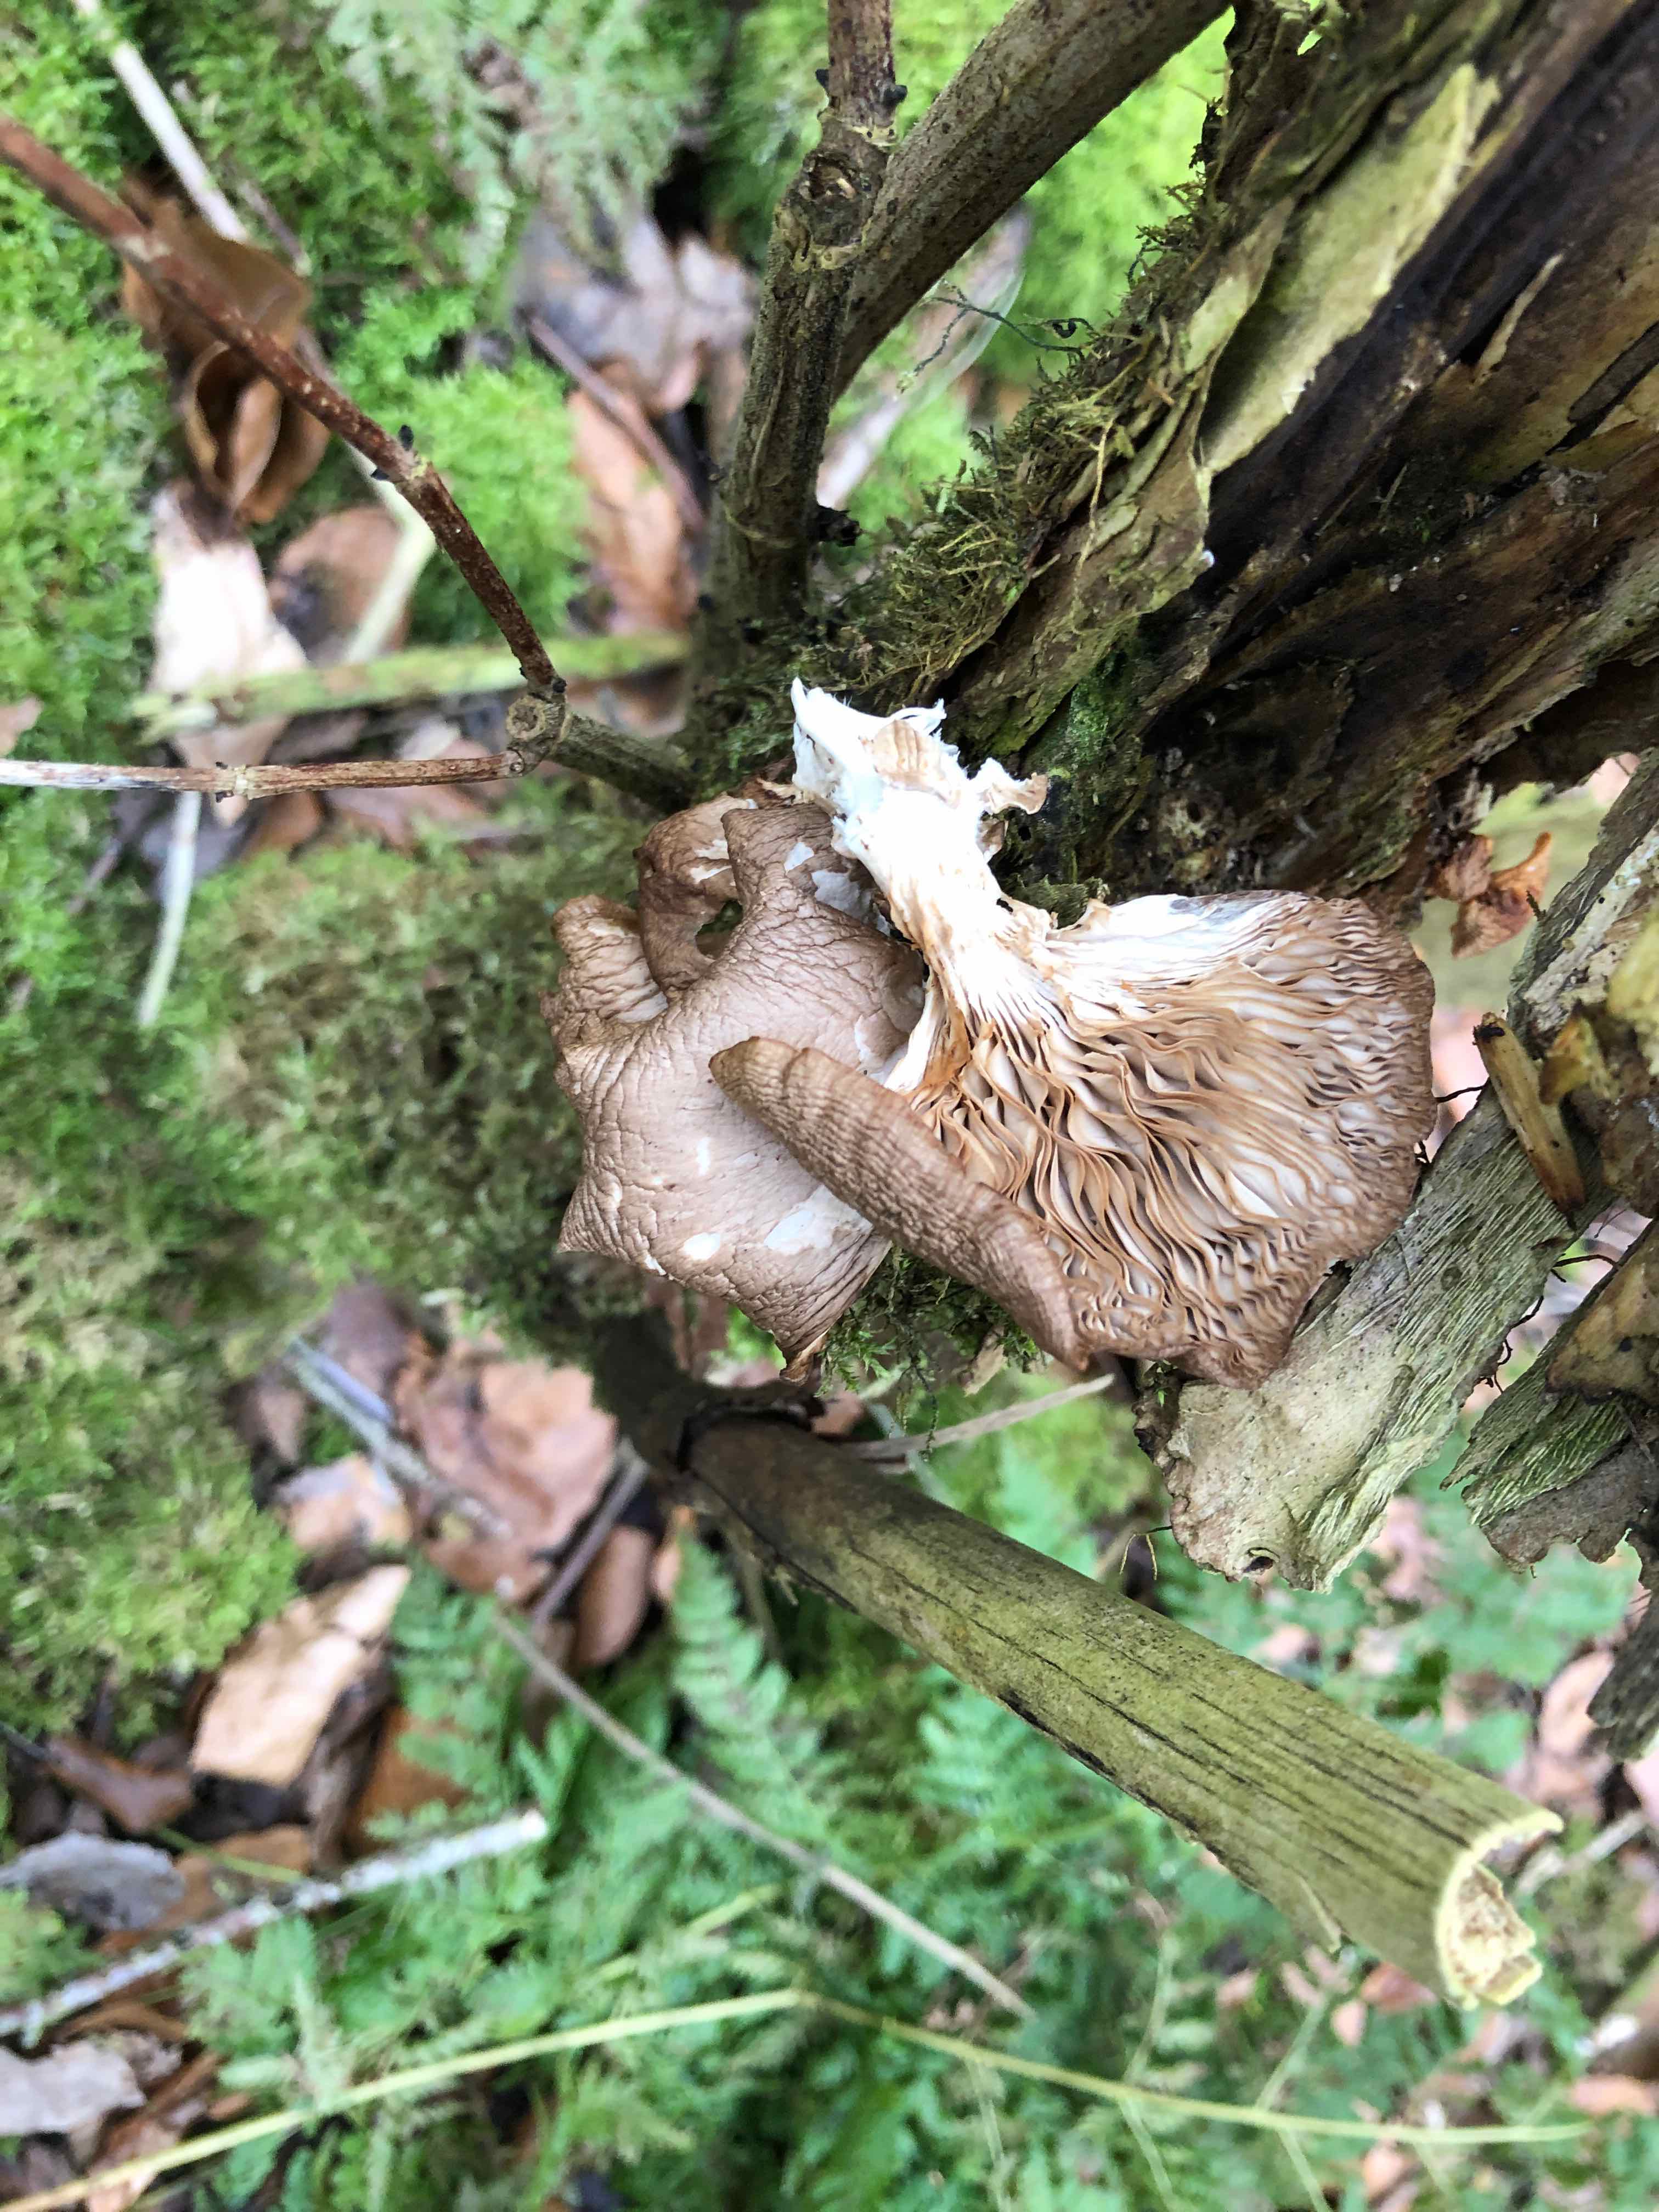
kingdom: Fungi
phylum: Basidiomycota
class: Agaricomycetes
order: Agaricales
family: Pleurotaceae
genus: Pleurotus
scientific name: Pleurotus ostreatus
